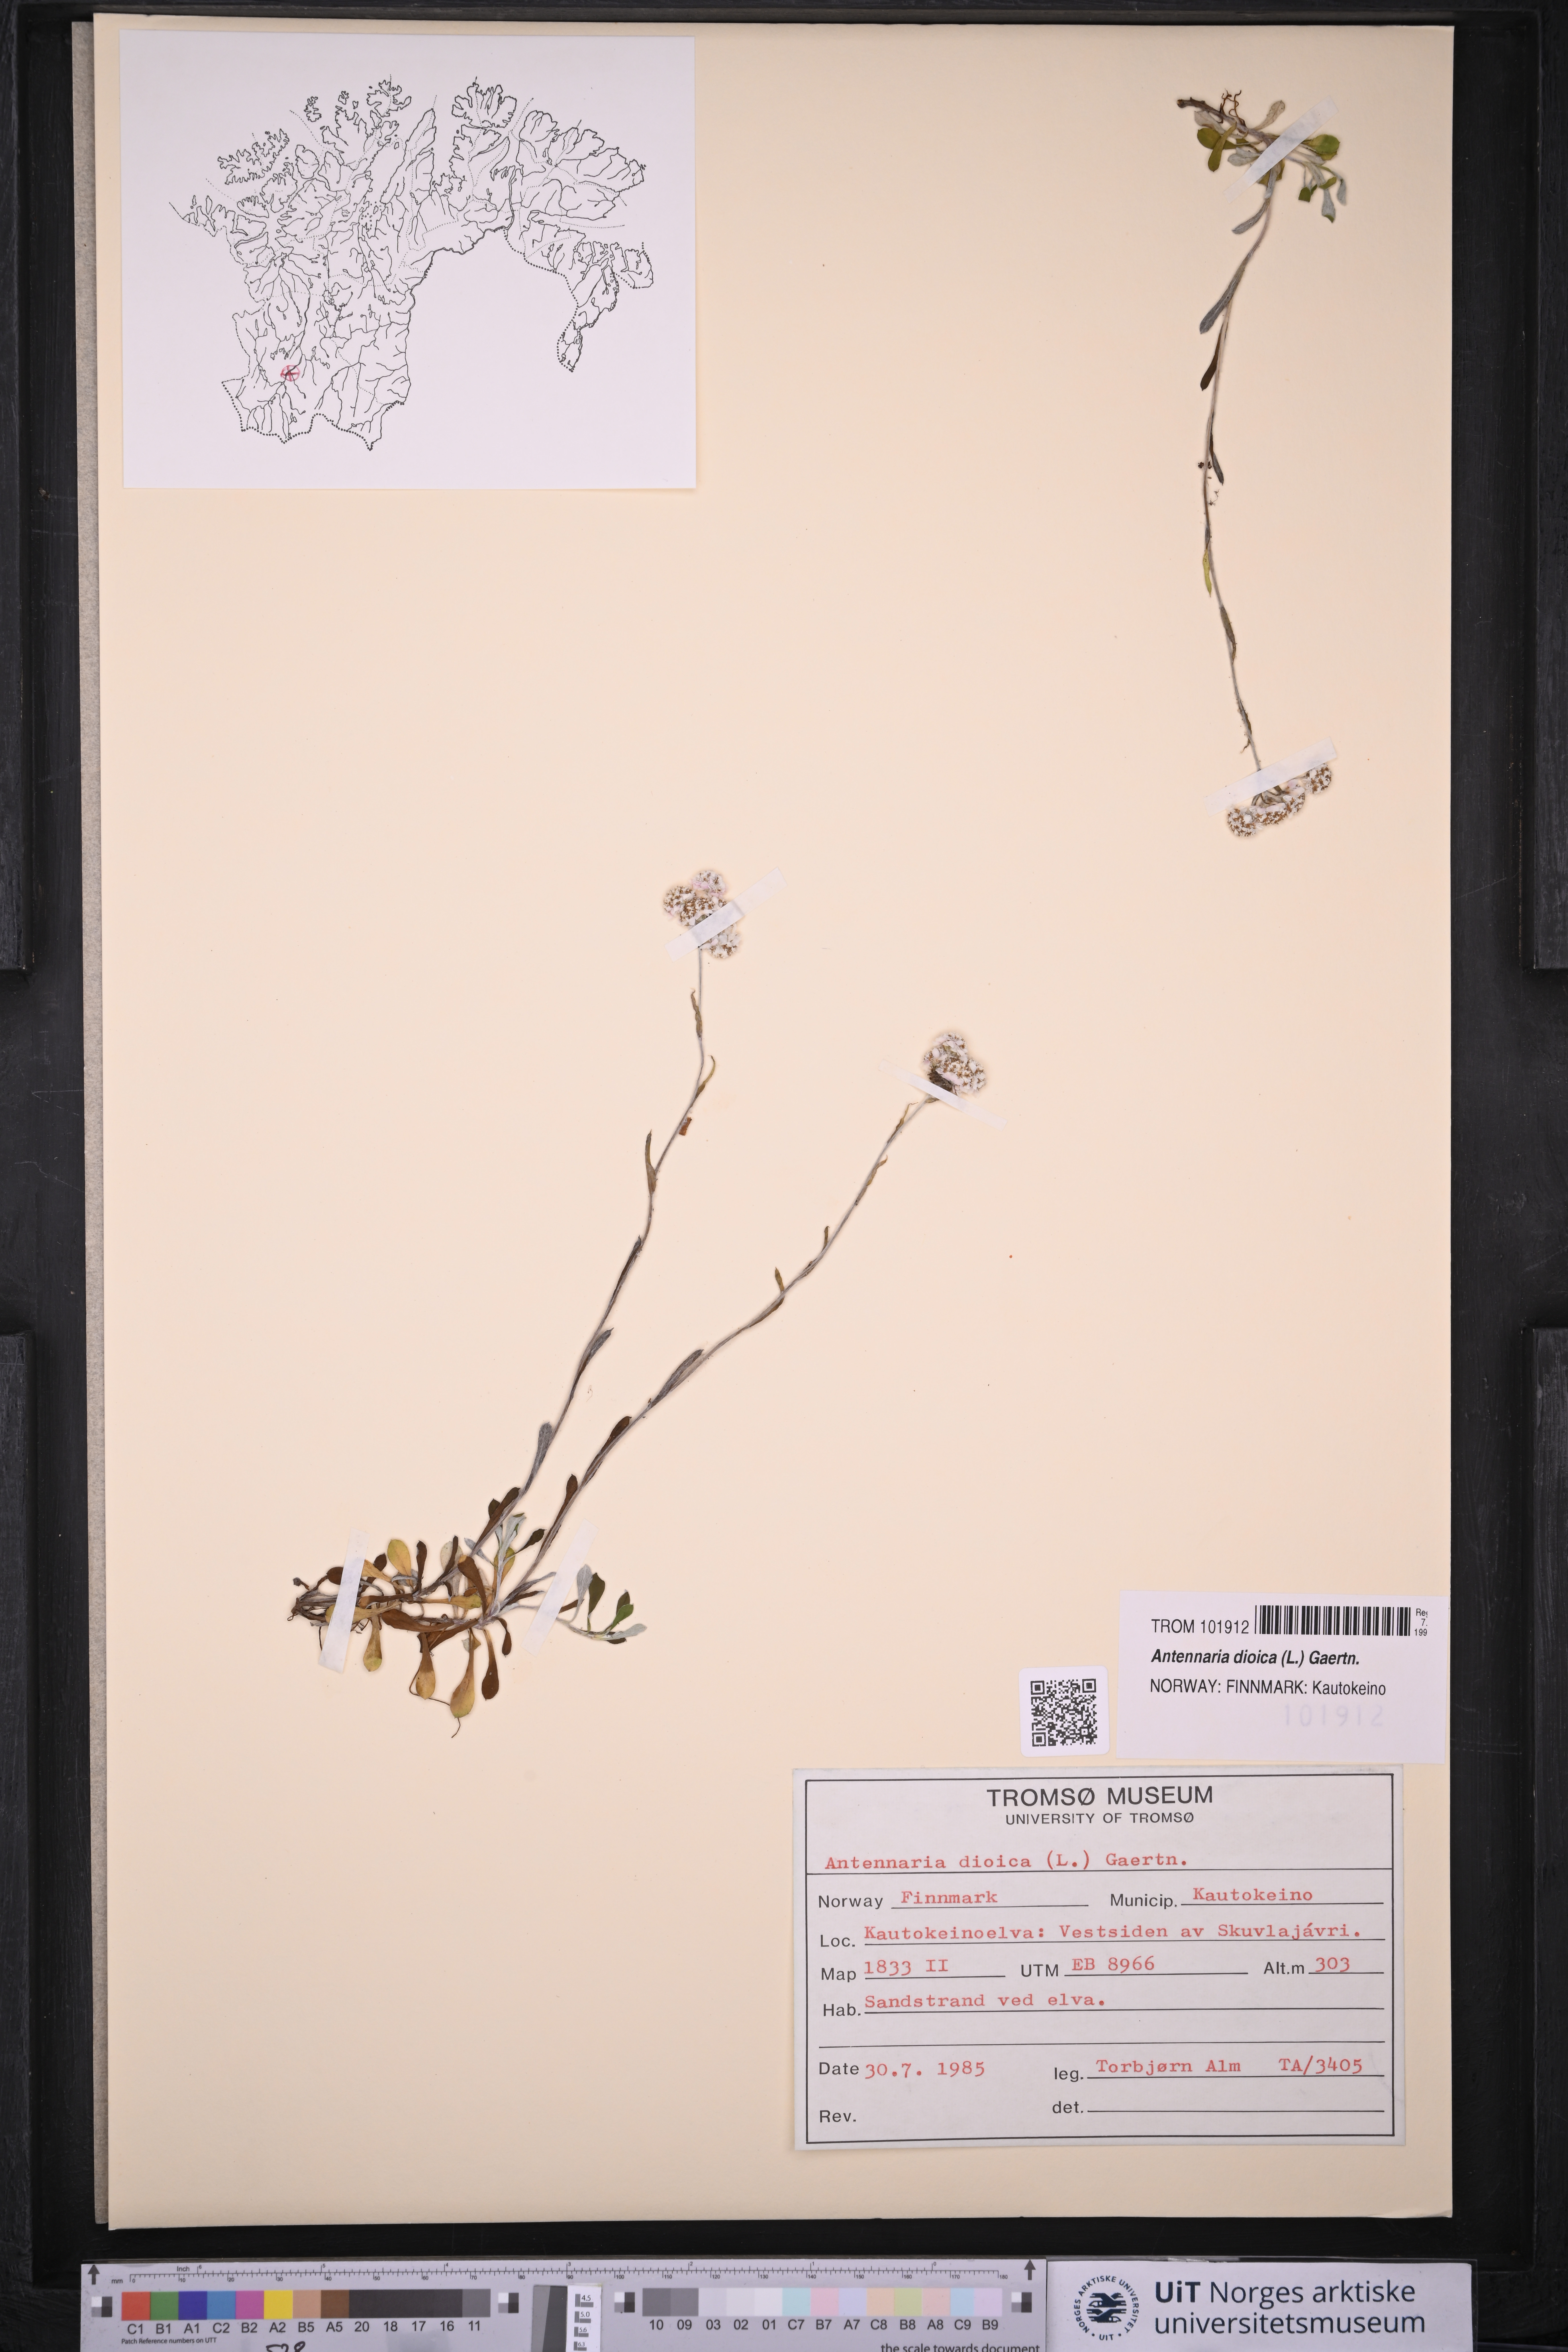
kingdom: Plantae
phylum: Tracheophyta
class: Magnoliopsida
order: Asterales
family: Asteraceae
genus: Antennaria
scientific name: Antennaria dioica
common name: Mountain everlasting
